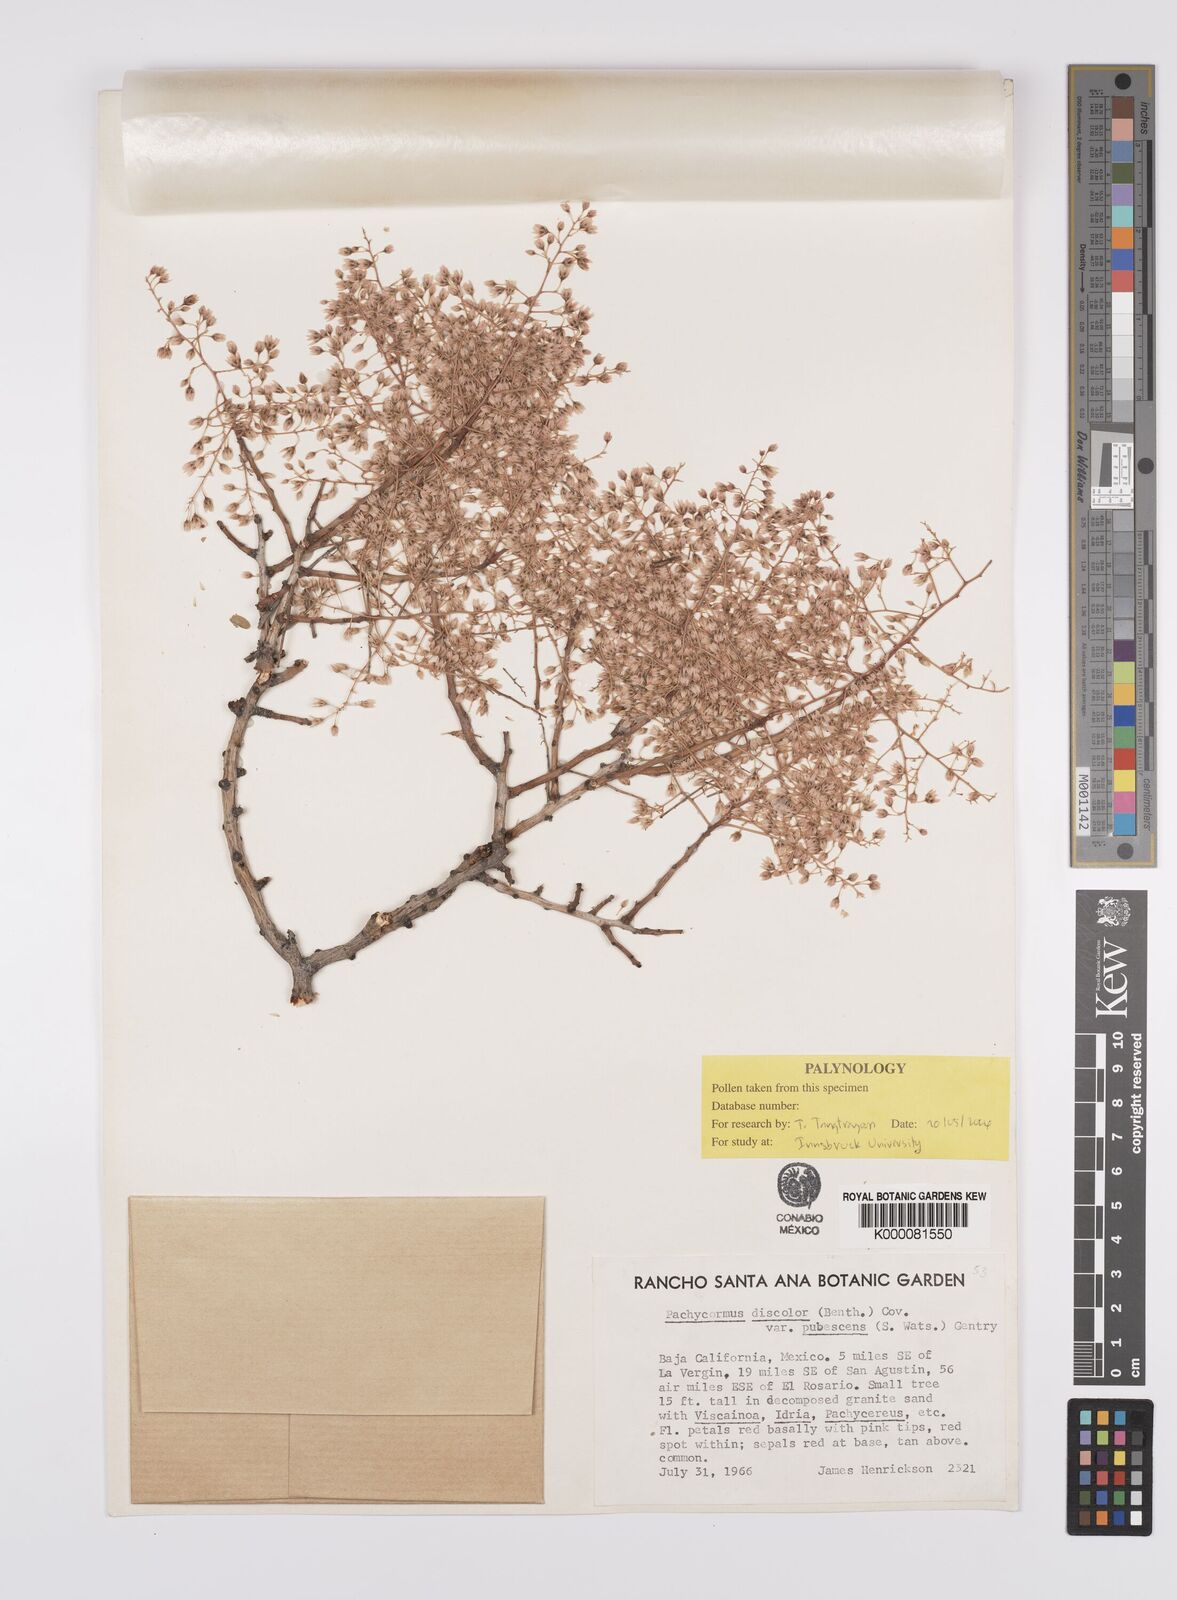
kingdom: Plantae
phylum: Tracheophyta
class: Magnoliopsida
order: Sapindales
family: Anacardiaceae
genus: Pachycormus
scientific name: Pachycormus discolor
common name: Succulent elephant trees
